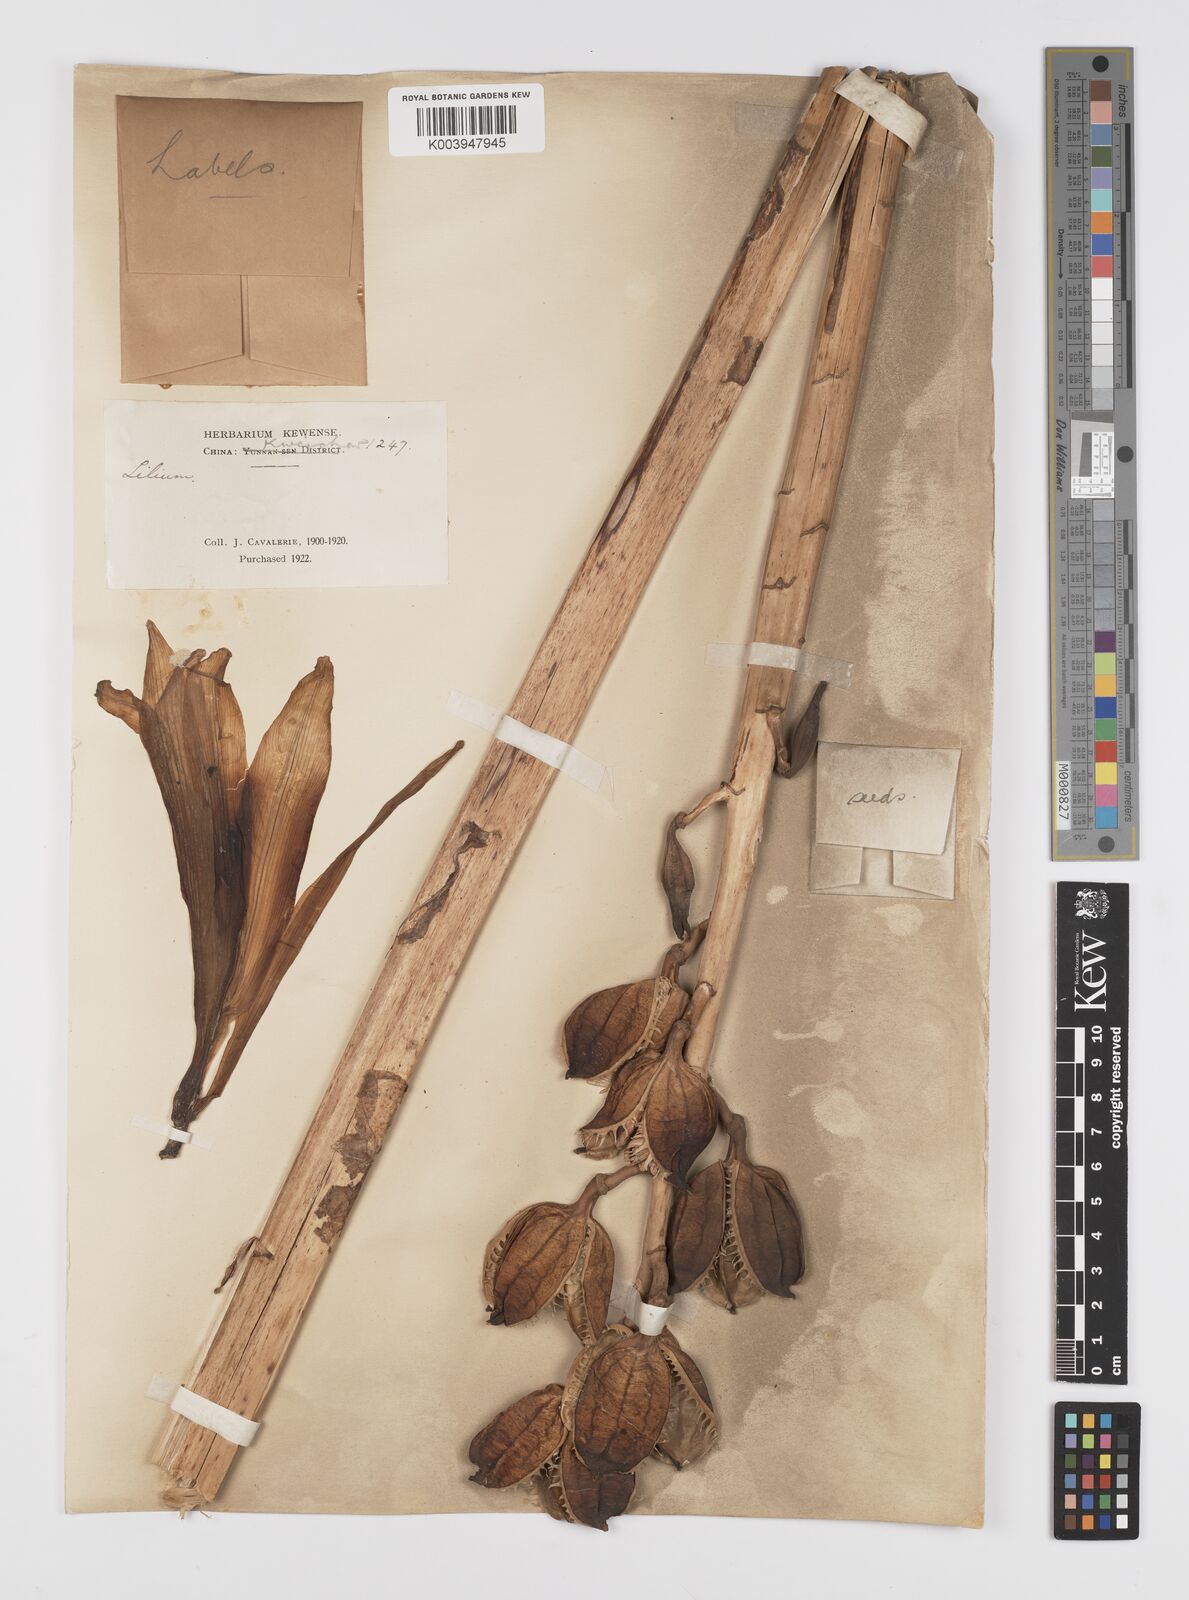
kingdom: Plantae
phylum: Tracheophyta
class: Liliopsida
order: Liliales
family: Liliaceae
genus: Cardiocrinum
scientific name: Cardiocrinum giganteum
